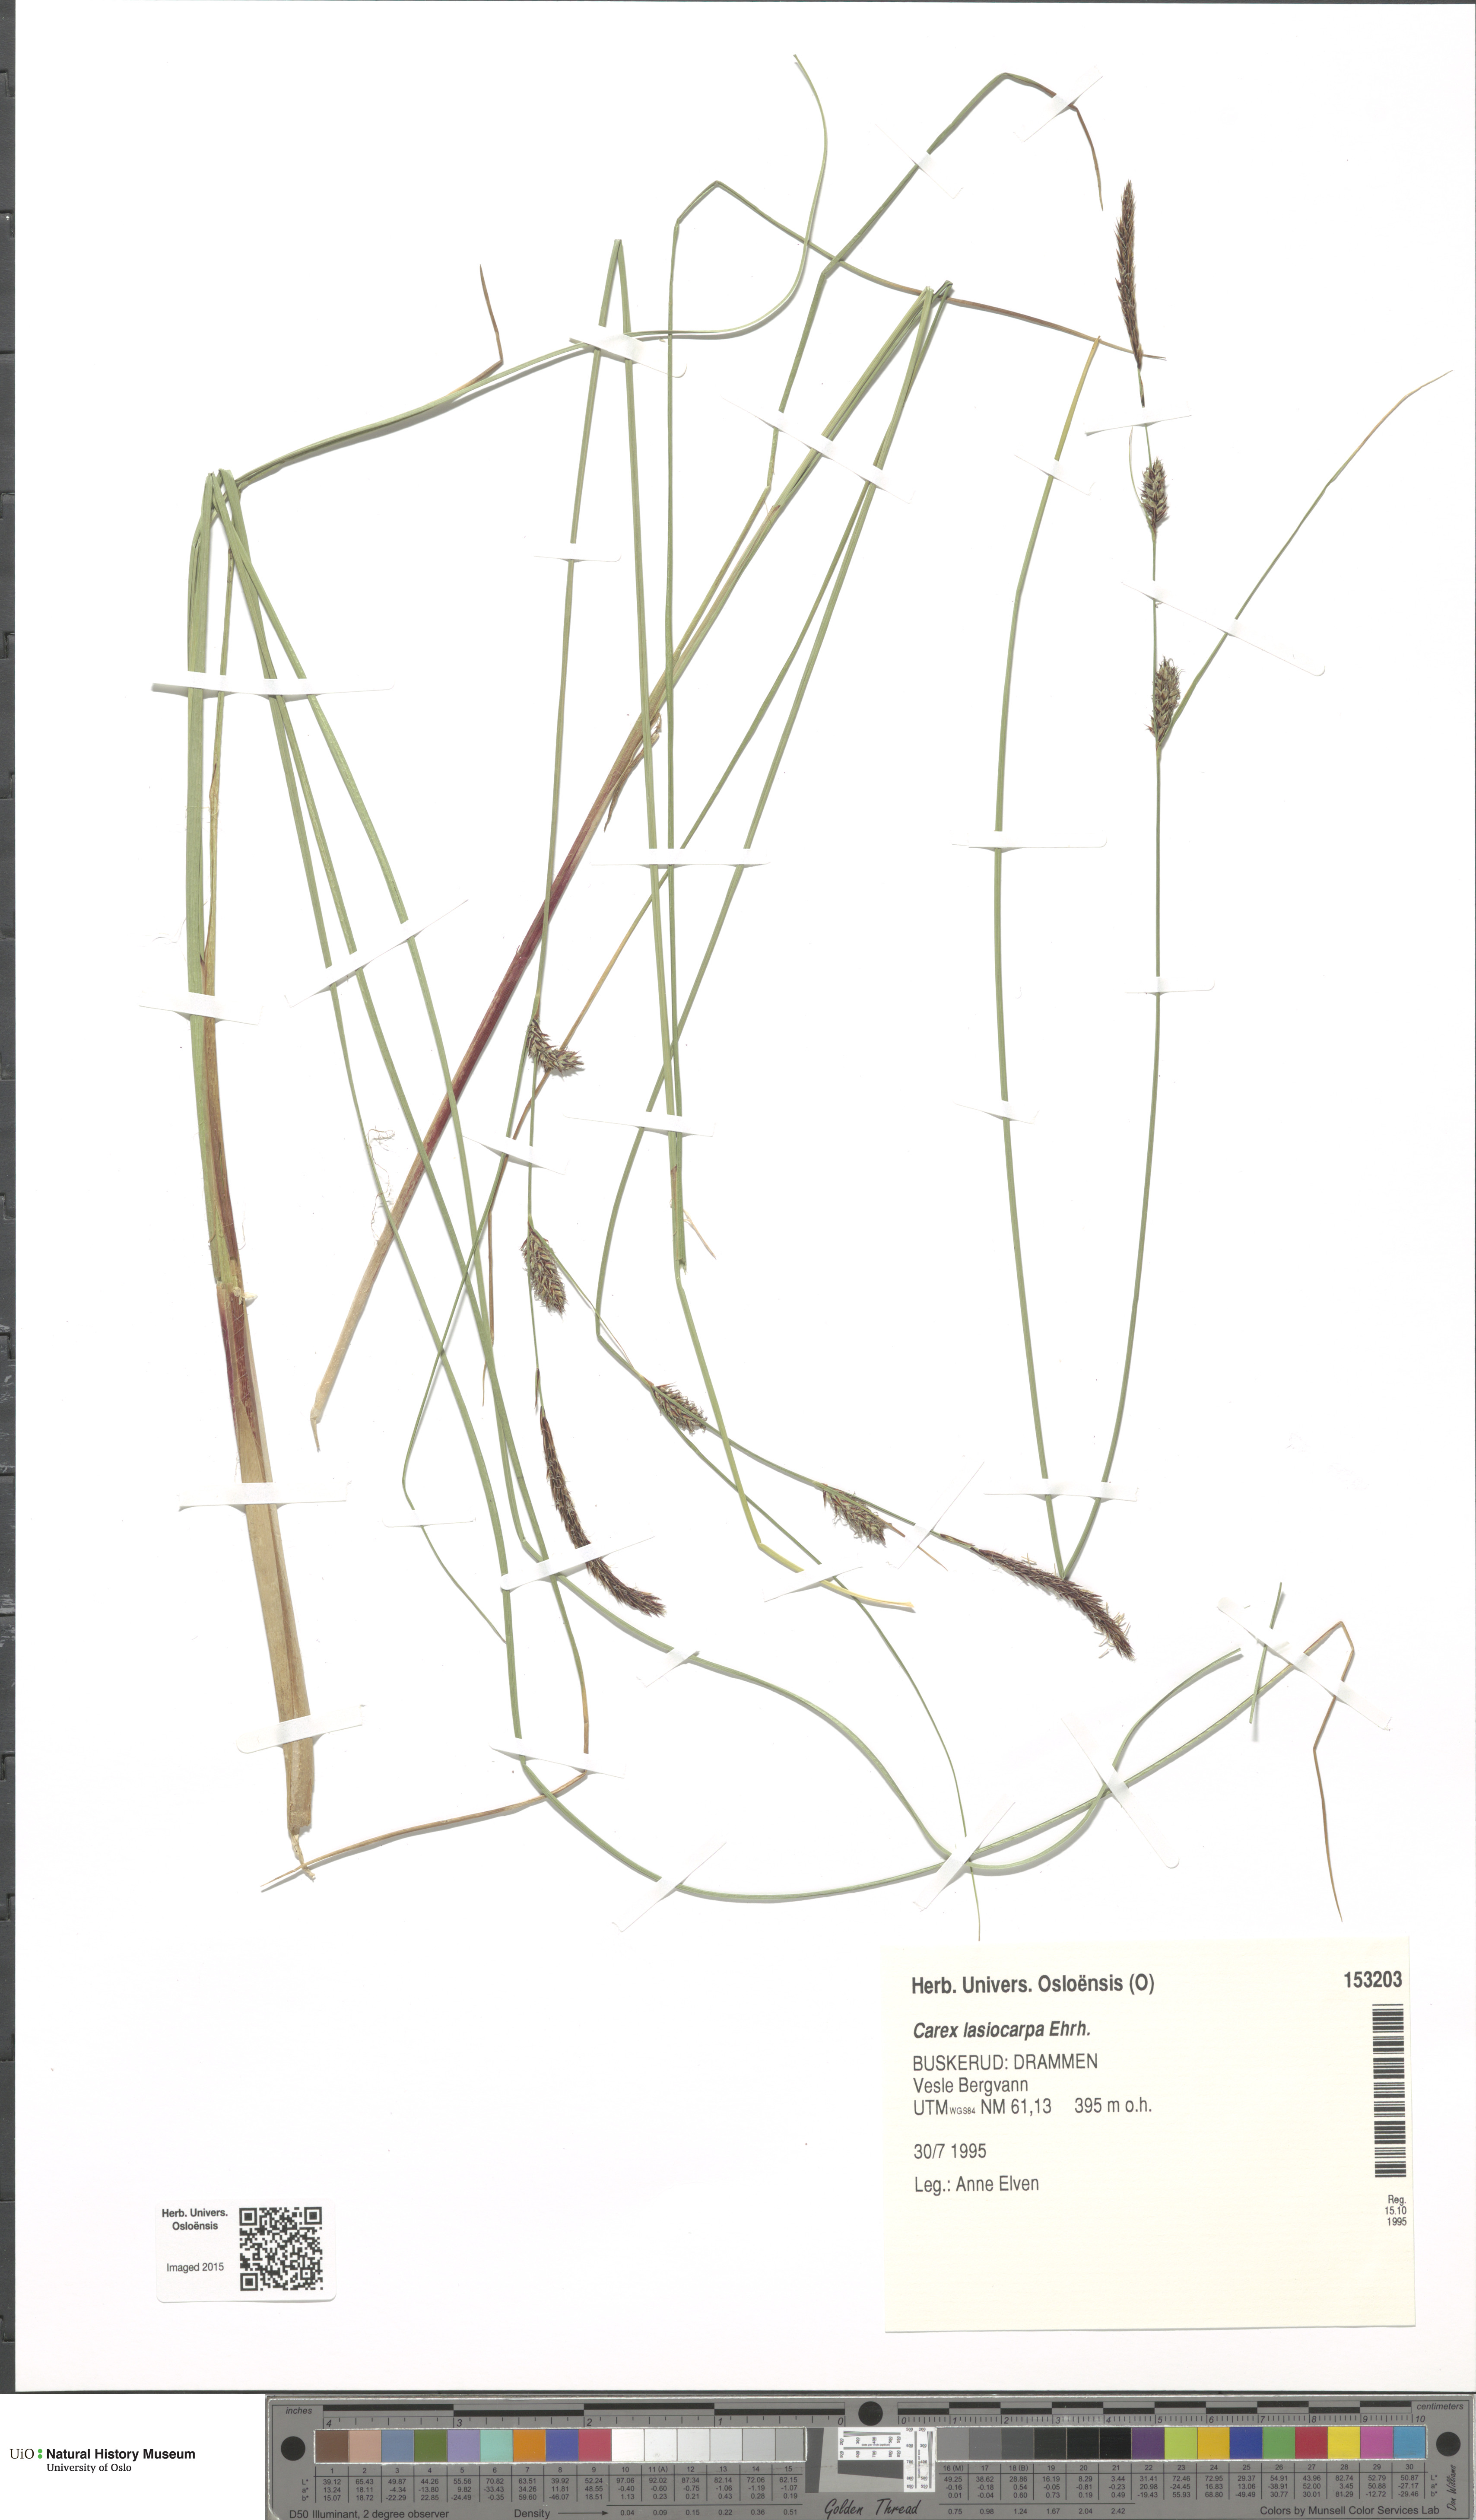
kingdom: Plantae
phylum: Tracheophyta
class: Liliopsida
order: Poales
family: Cyperaceae
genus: Carex
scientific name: Carex lasiocarpa
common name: Slender sedge
